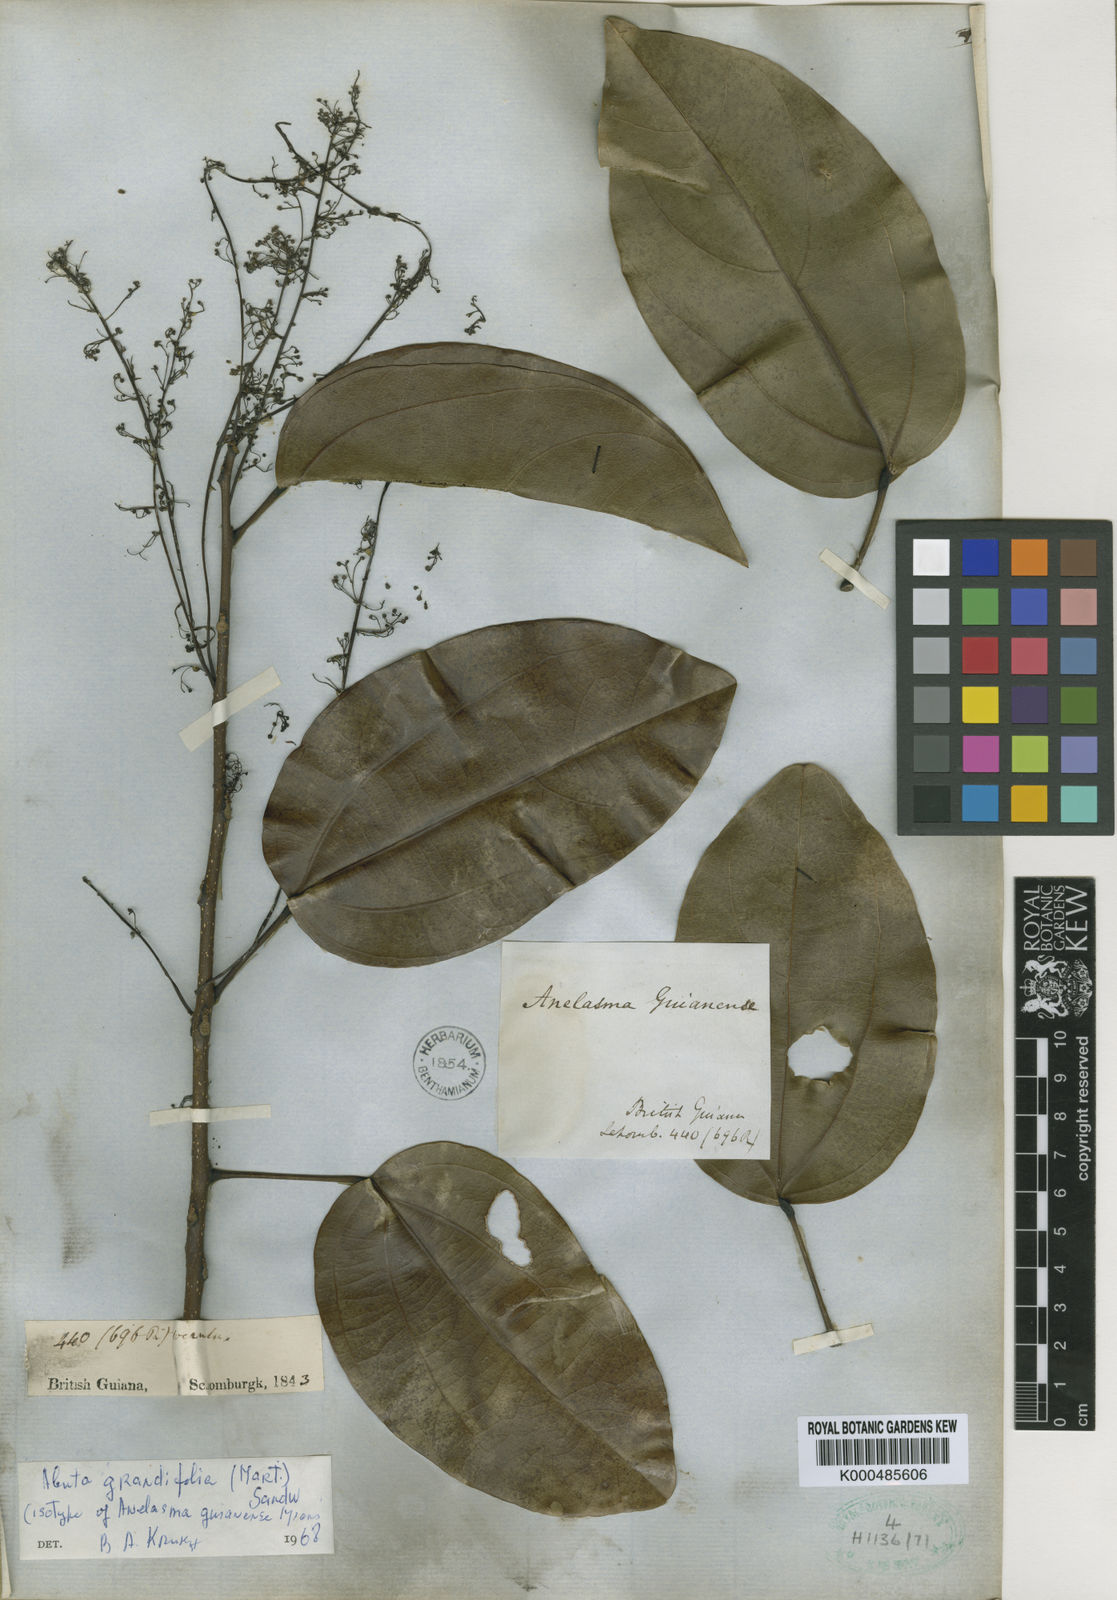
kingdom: Plantae
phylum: Tracheophyta
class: Magnoliopsida
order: Ranunculales
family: Menispermaceae
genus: Abuta
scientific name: Abuta grandifolia
